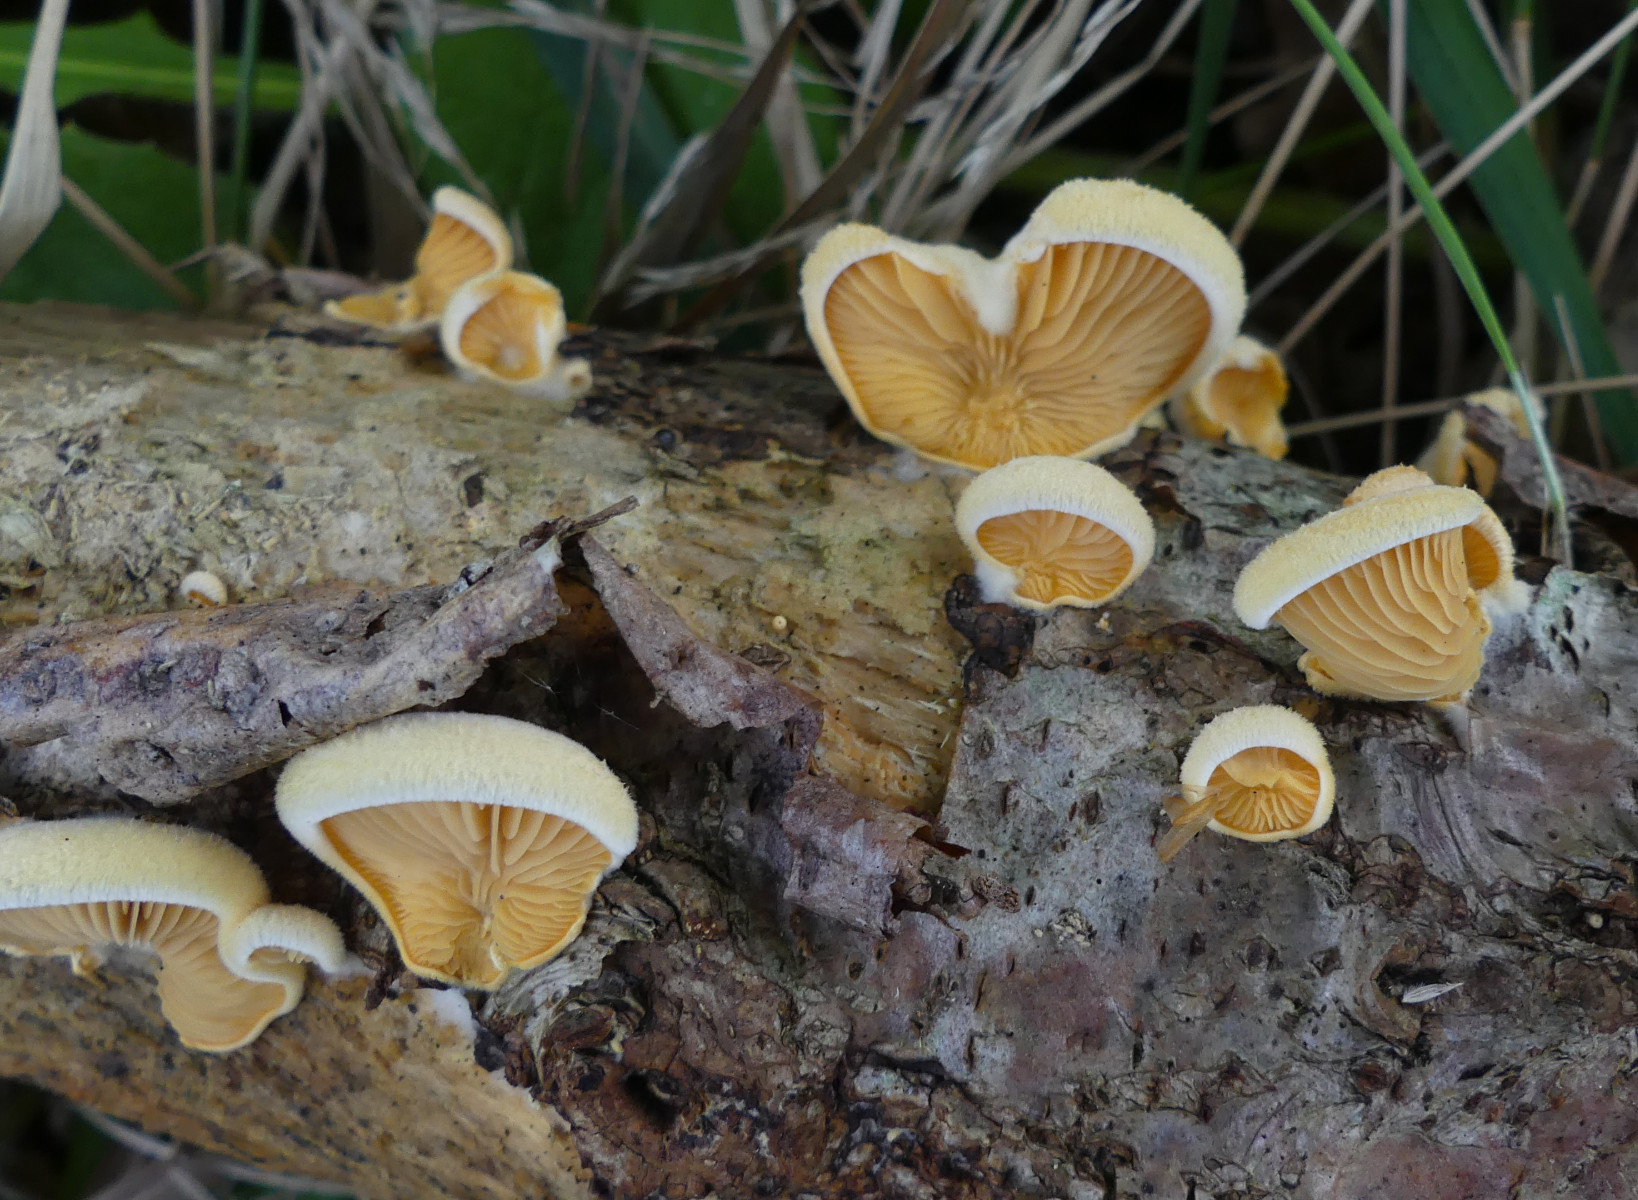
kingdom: Fungi
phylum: Basidiomycota
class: Agaricomycetes
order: Agaricales
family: Phyllotopsidaceae
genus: Phyllotopsis
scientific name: Phyllotopsis nidulans
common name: okkerblad
